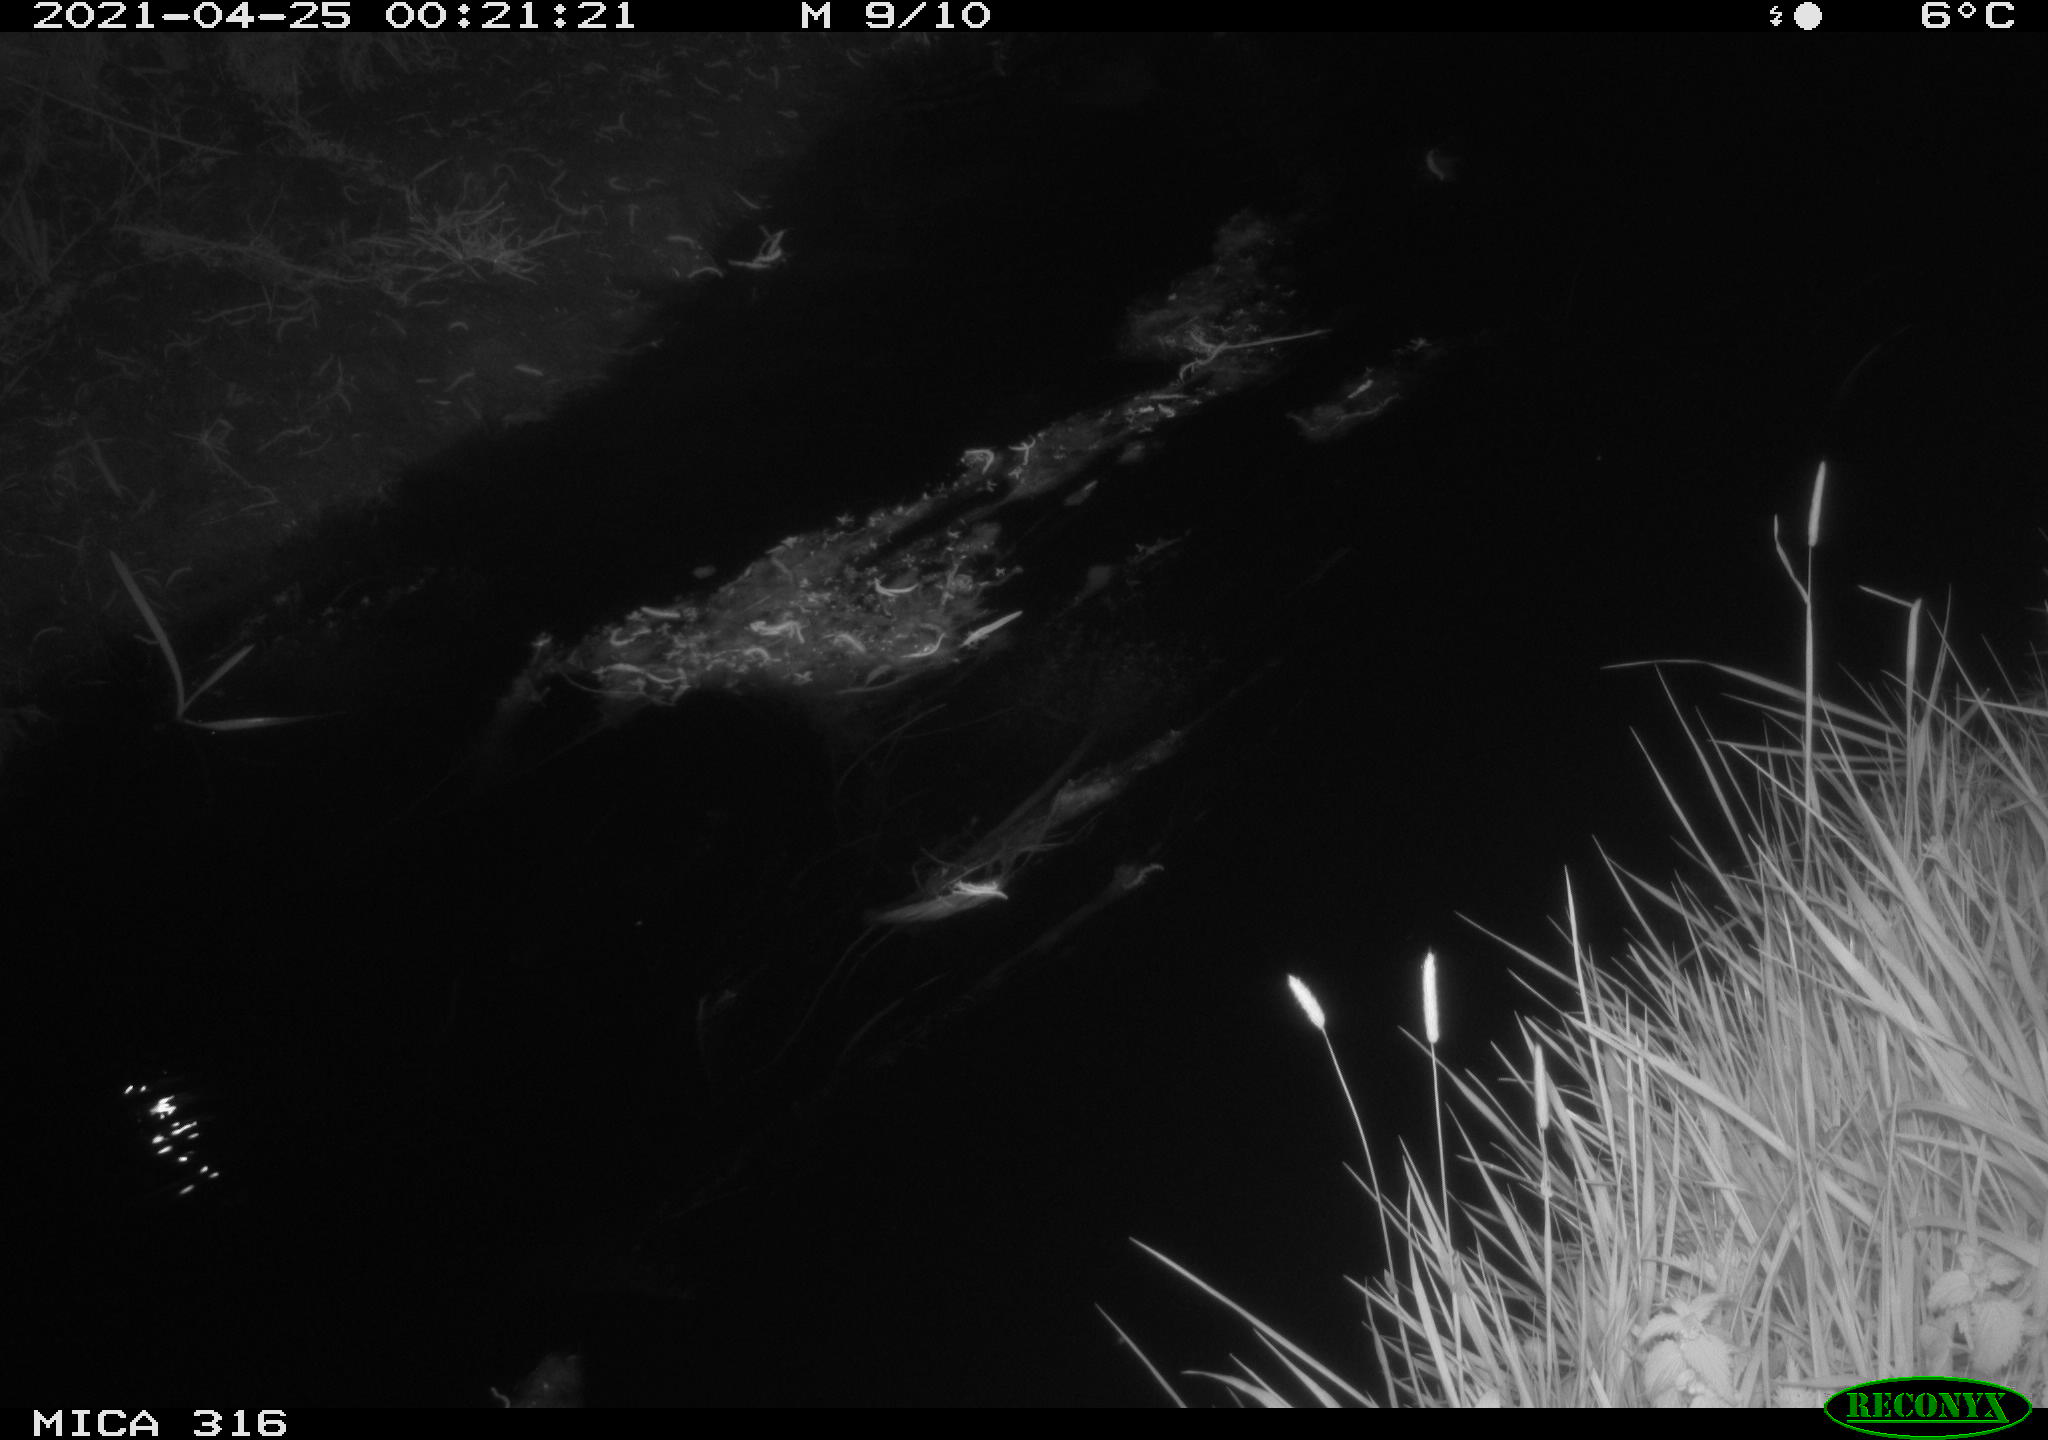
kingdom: Animalia
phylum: Chordata
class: Aves
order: Pelecaniformes
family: Ardeidae
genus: Ardea
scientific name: Ardea
